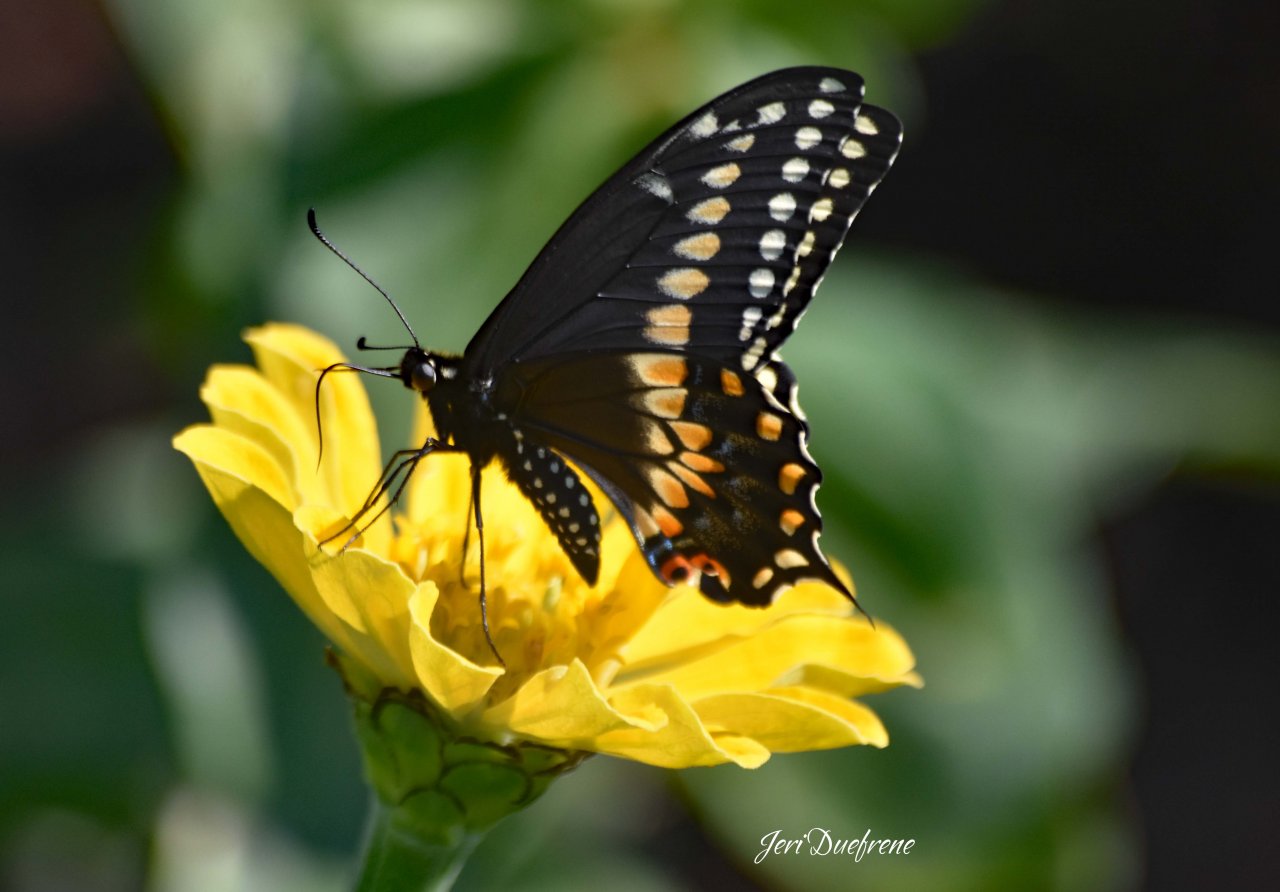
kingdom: Animalia
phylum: Arthropoda
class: Insecta
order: Lepidoptera
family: Papilionidae
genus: Papilio
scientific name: Papilio polyxenes
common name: Black Swallowtail
